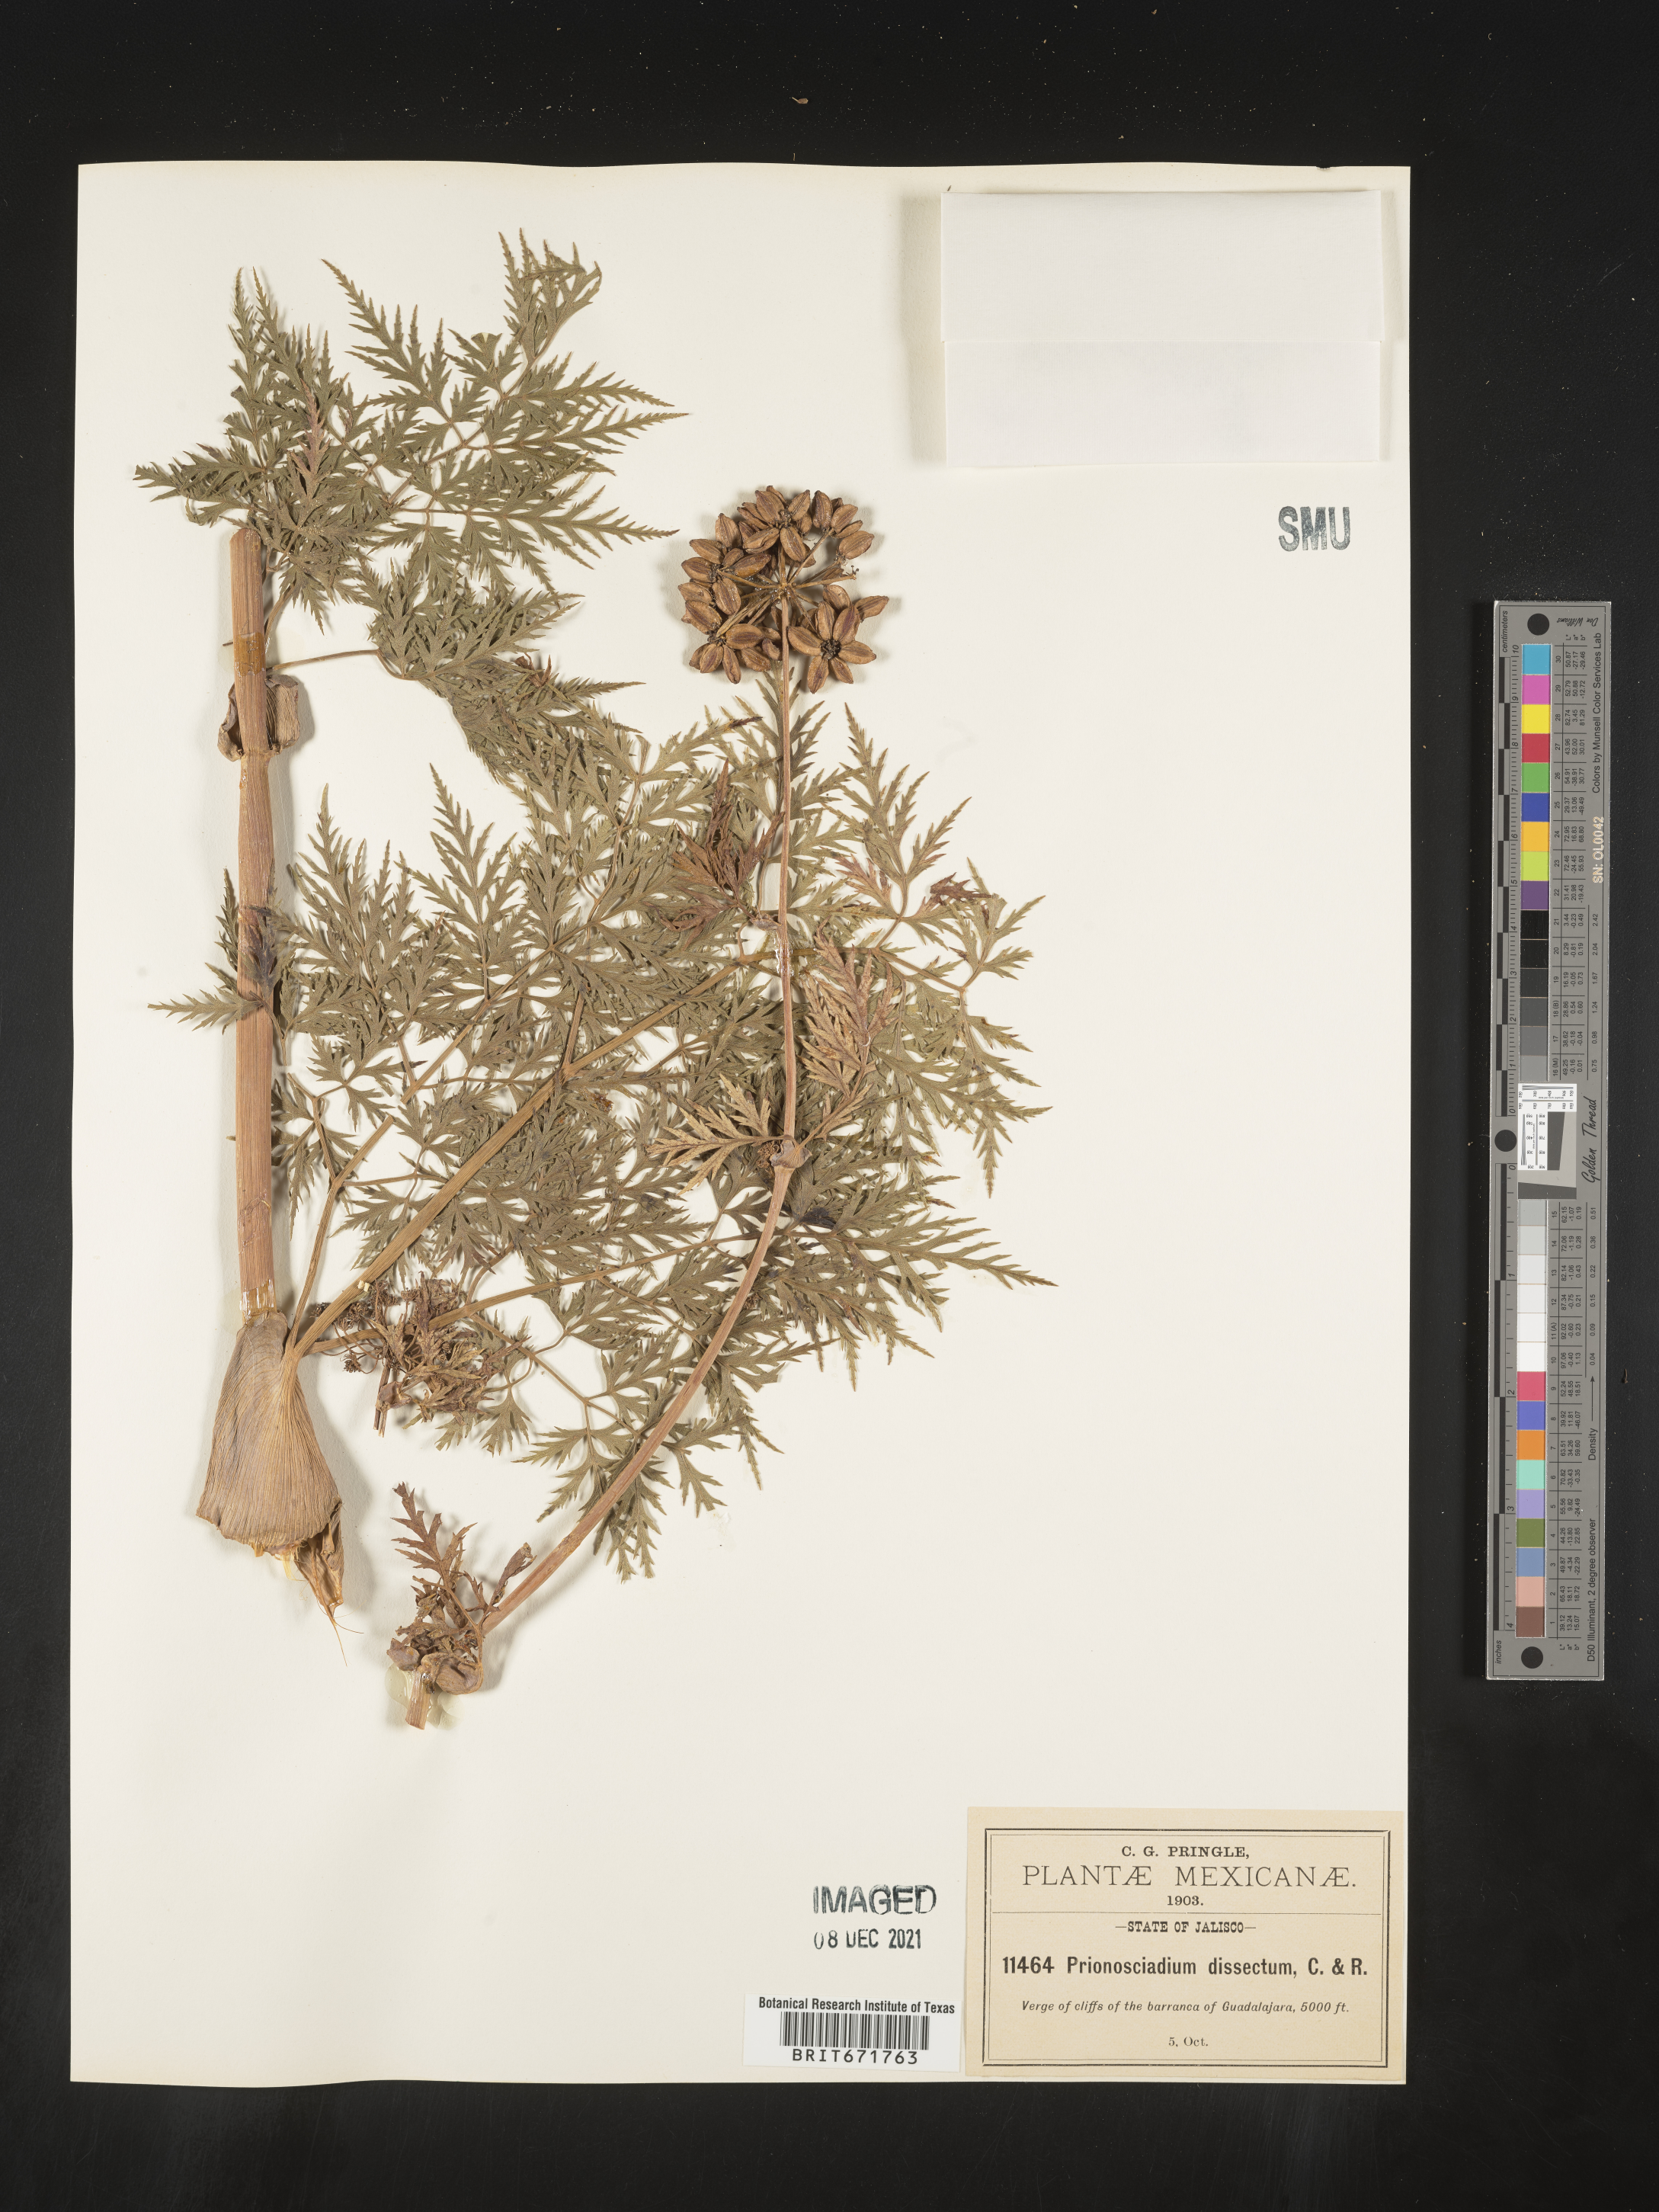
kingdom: Plantae
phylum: Tracheophyta
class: Magnoliopsida
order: Apiales
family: Apiaceae
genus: Prionosciadium
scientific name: Prionosciadium
